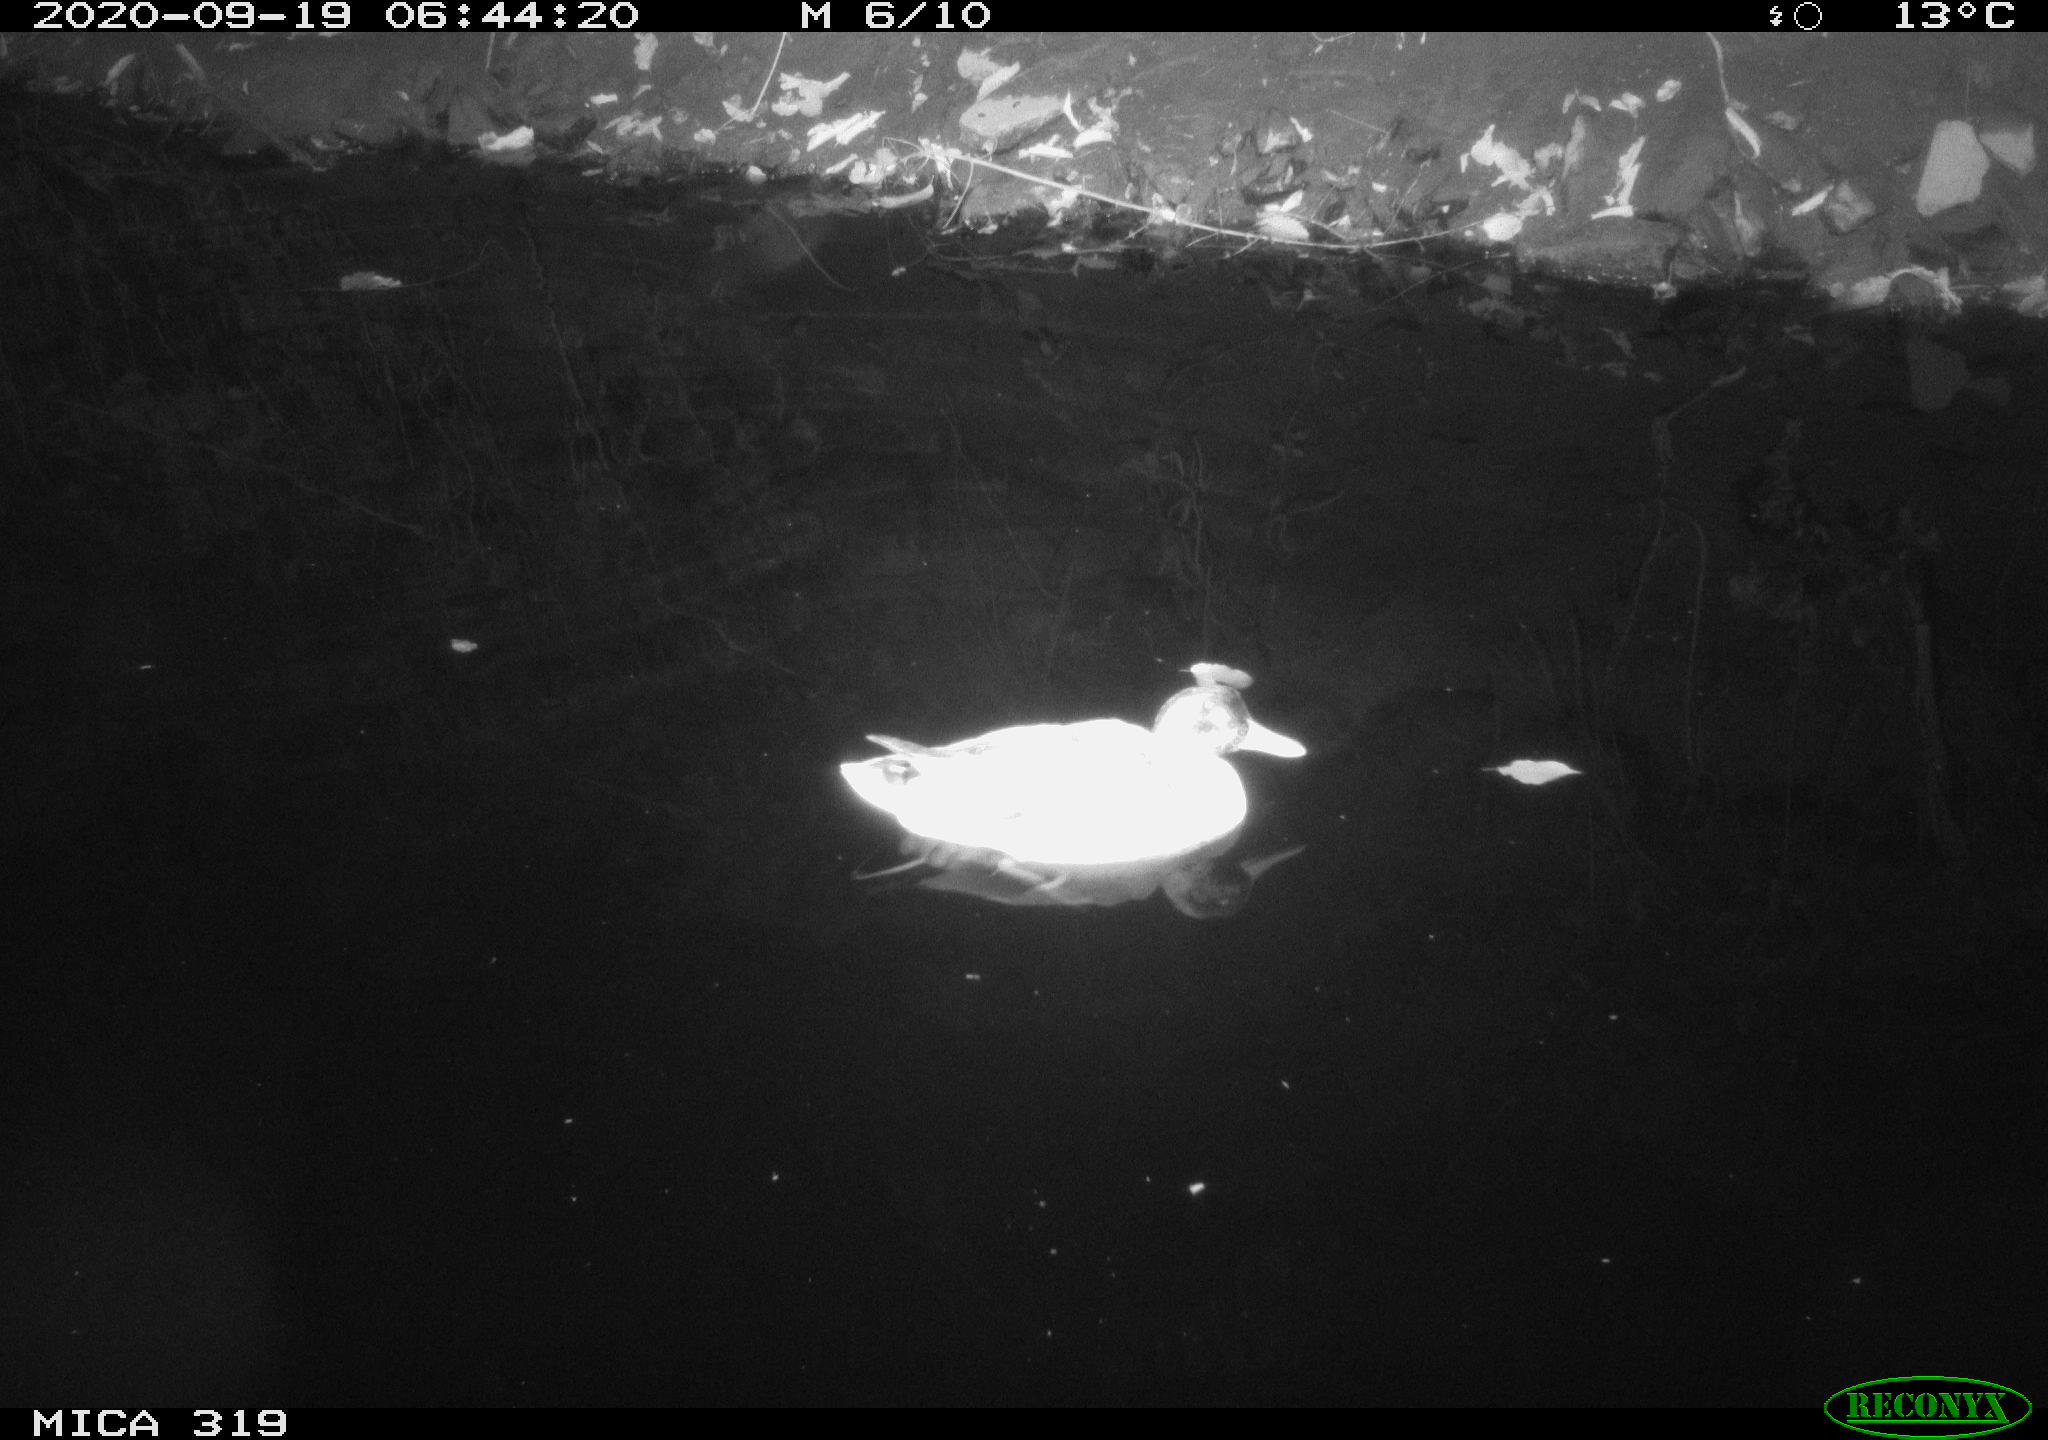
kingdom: Animalia
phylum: Chordata
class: Aves
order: Anseriformes
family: Anatidae
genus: Anas
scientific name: Anas platyrhynchos
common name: Mallard
